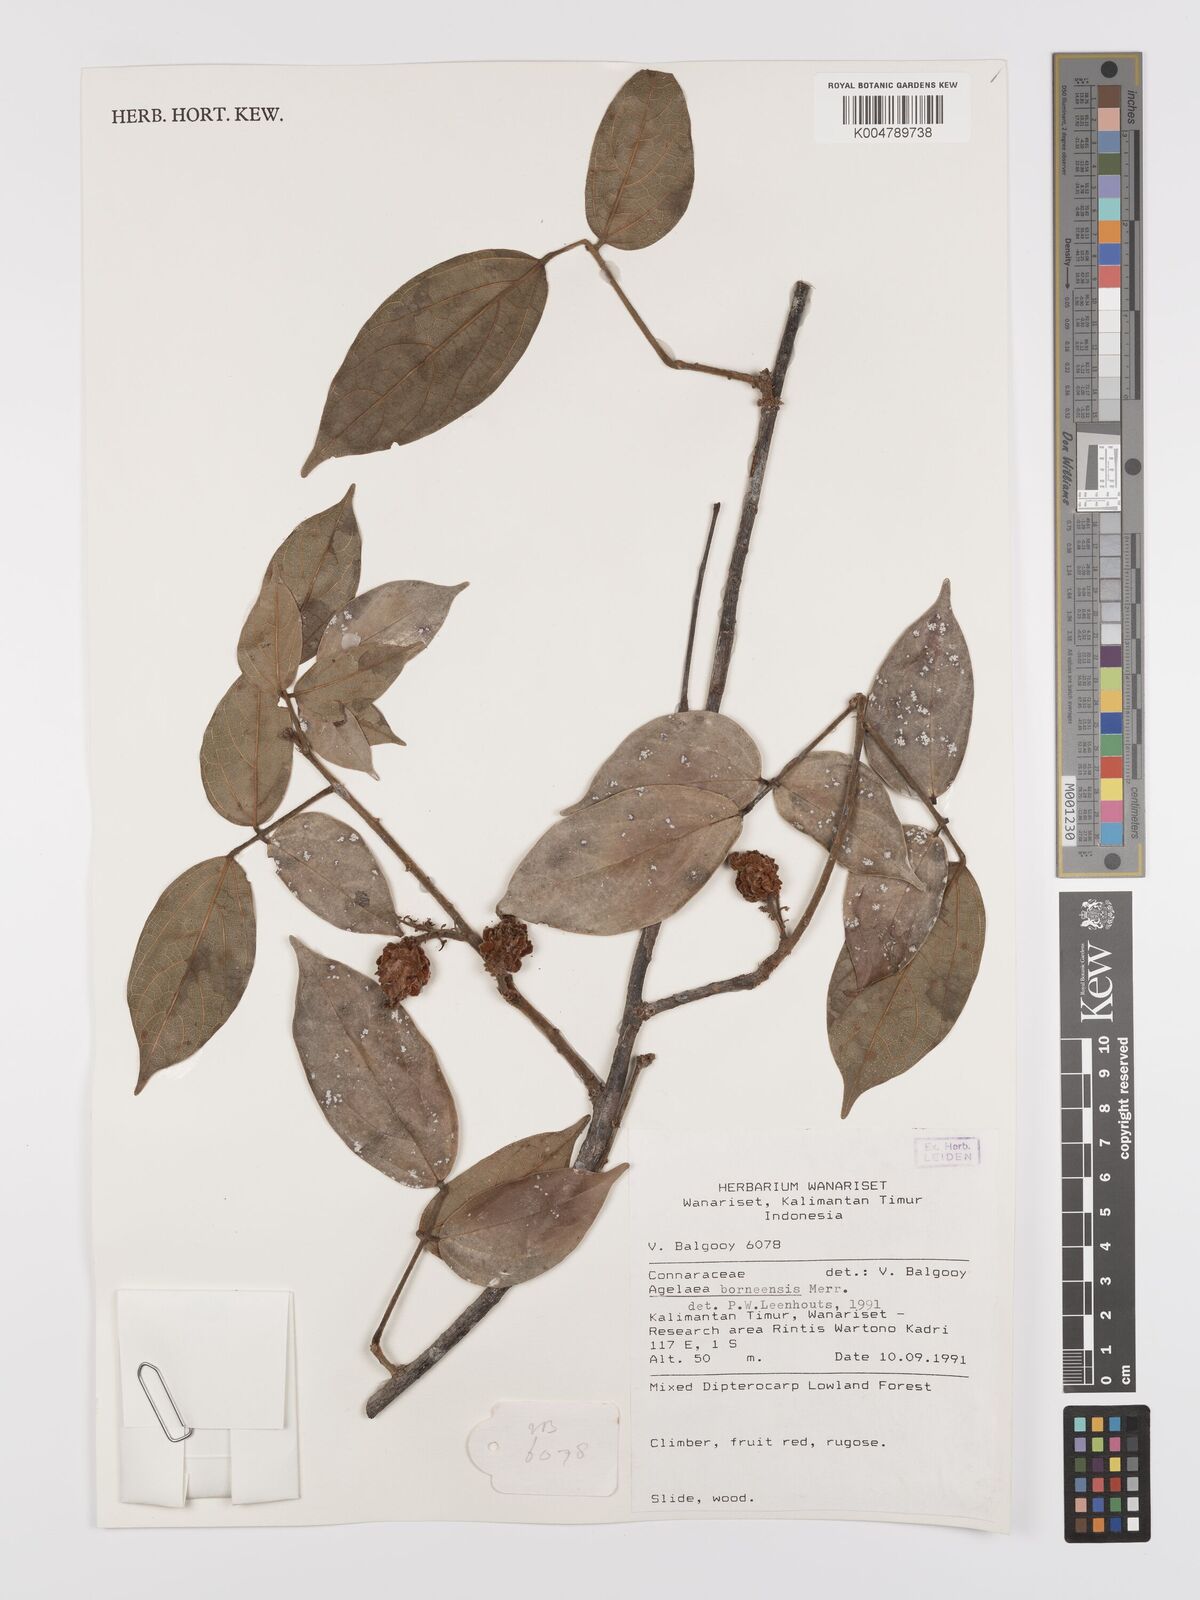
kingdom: Plantae
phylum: Tracheophyta
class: Magnoliopsida
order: Oxalidales
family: Connaraceae
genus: Agelaea
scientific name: Agelaea borneensis
